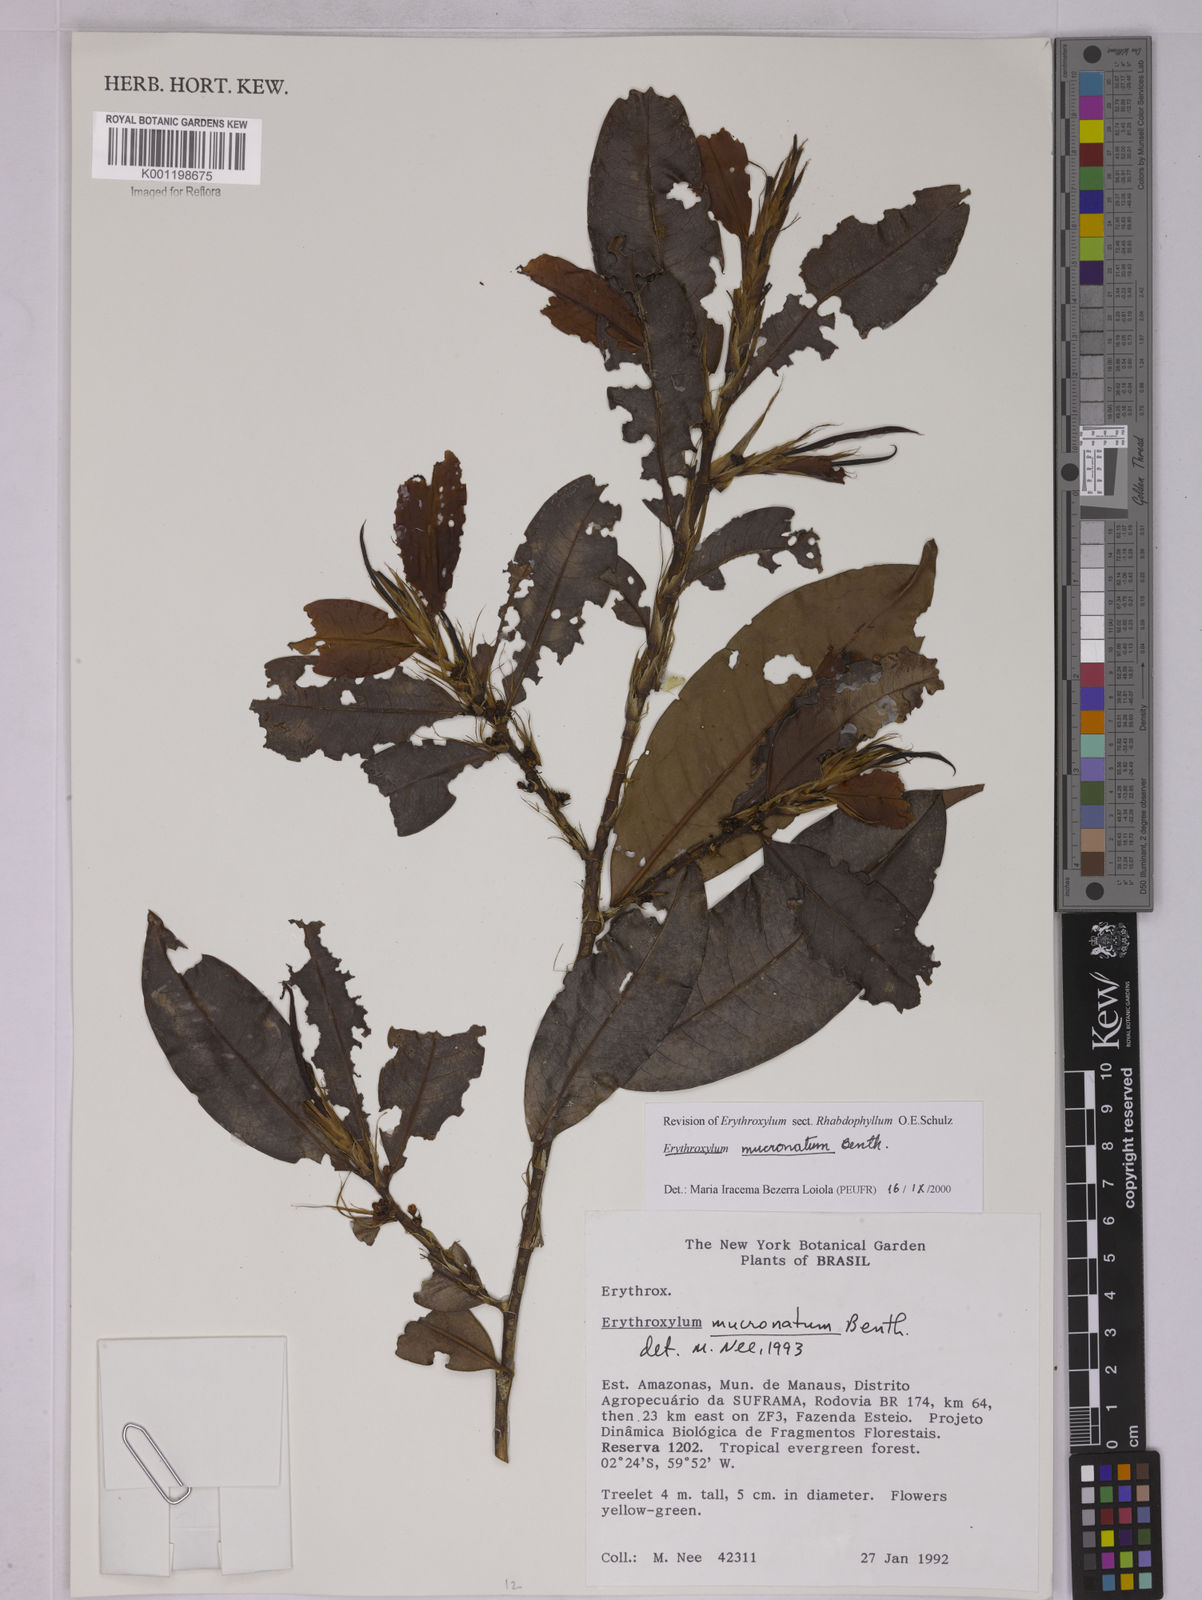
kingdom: Plantae
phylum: Tracheophyta
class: Magnoliopsida
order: Malpighiales
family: Erythroxylaceae
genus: Erythroxylum
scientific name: Erythroxylum mucronatum
